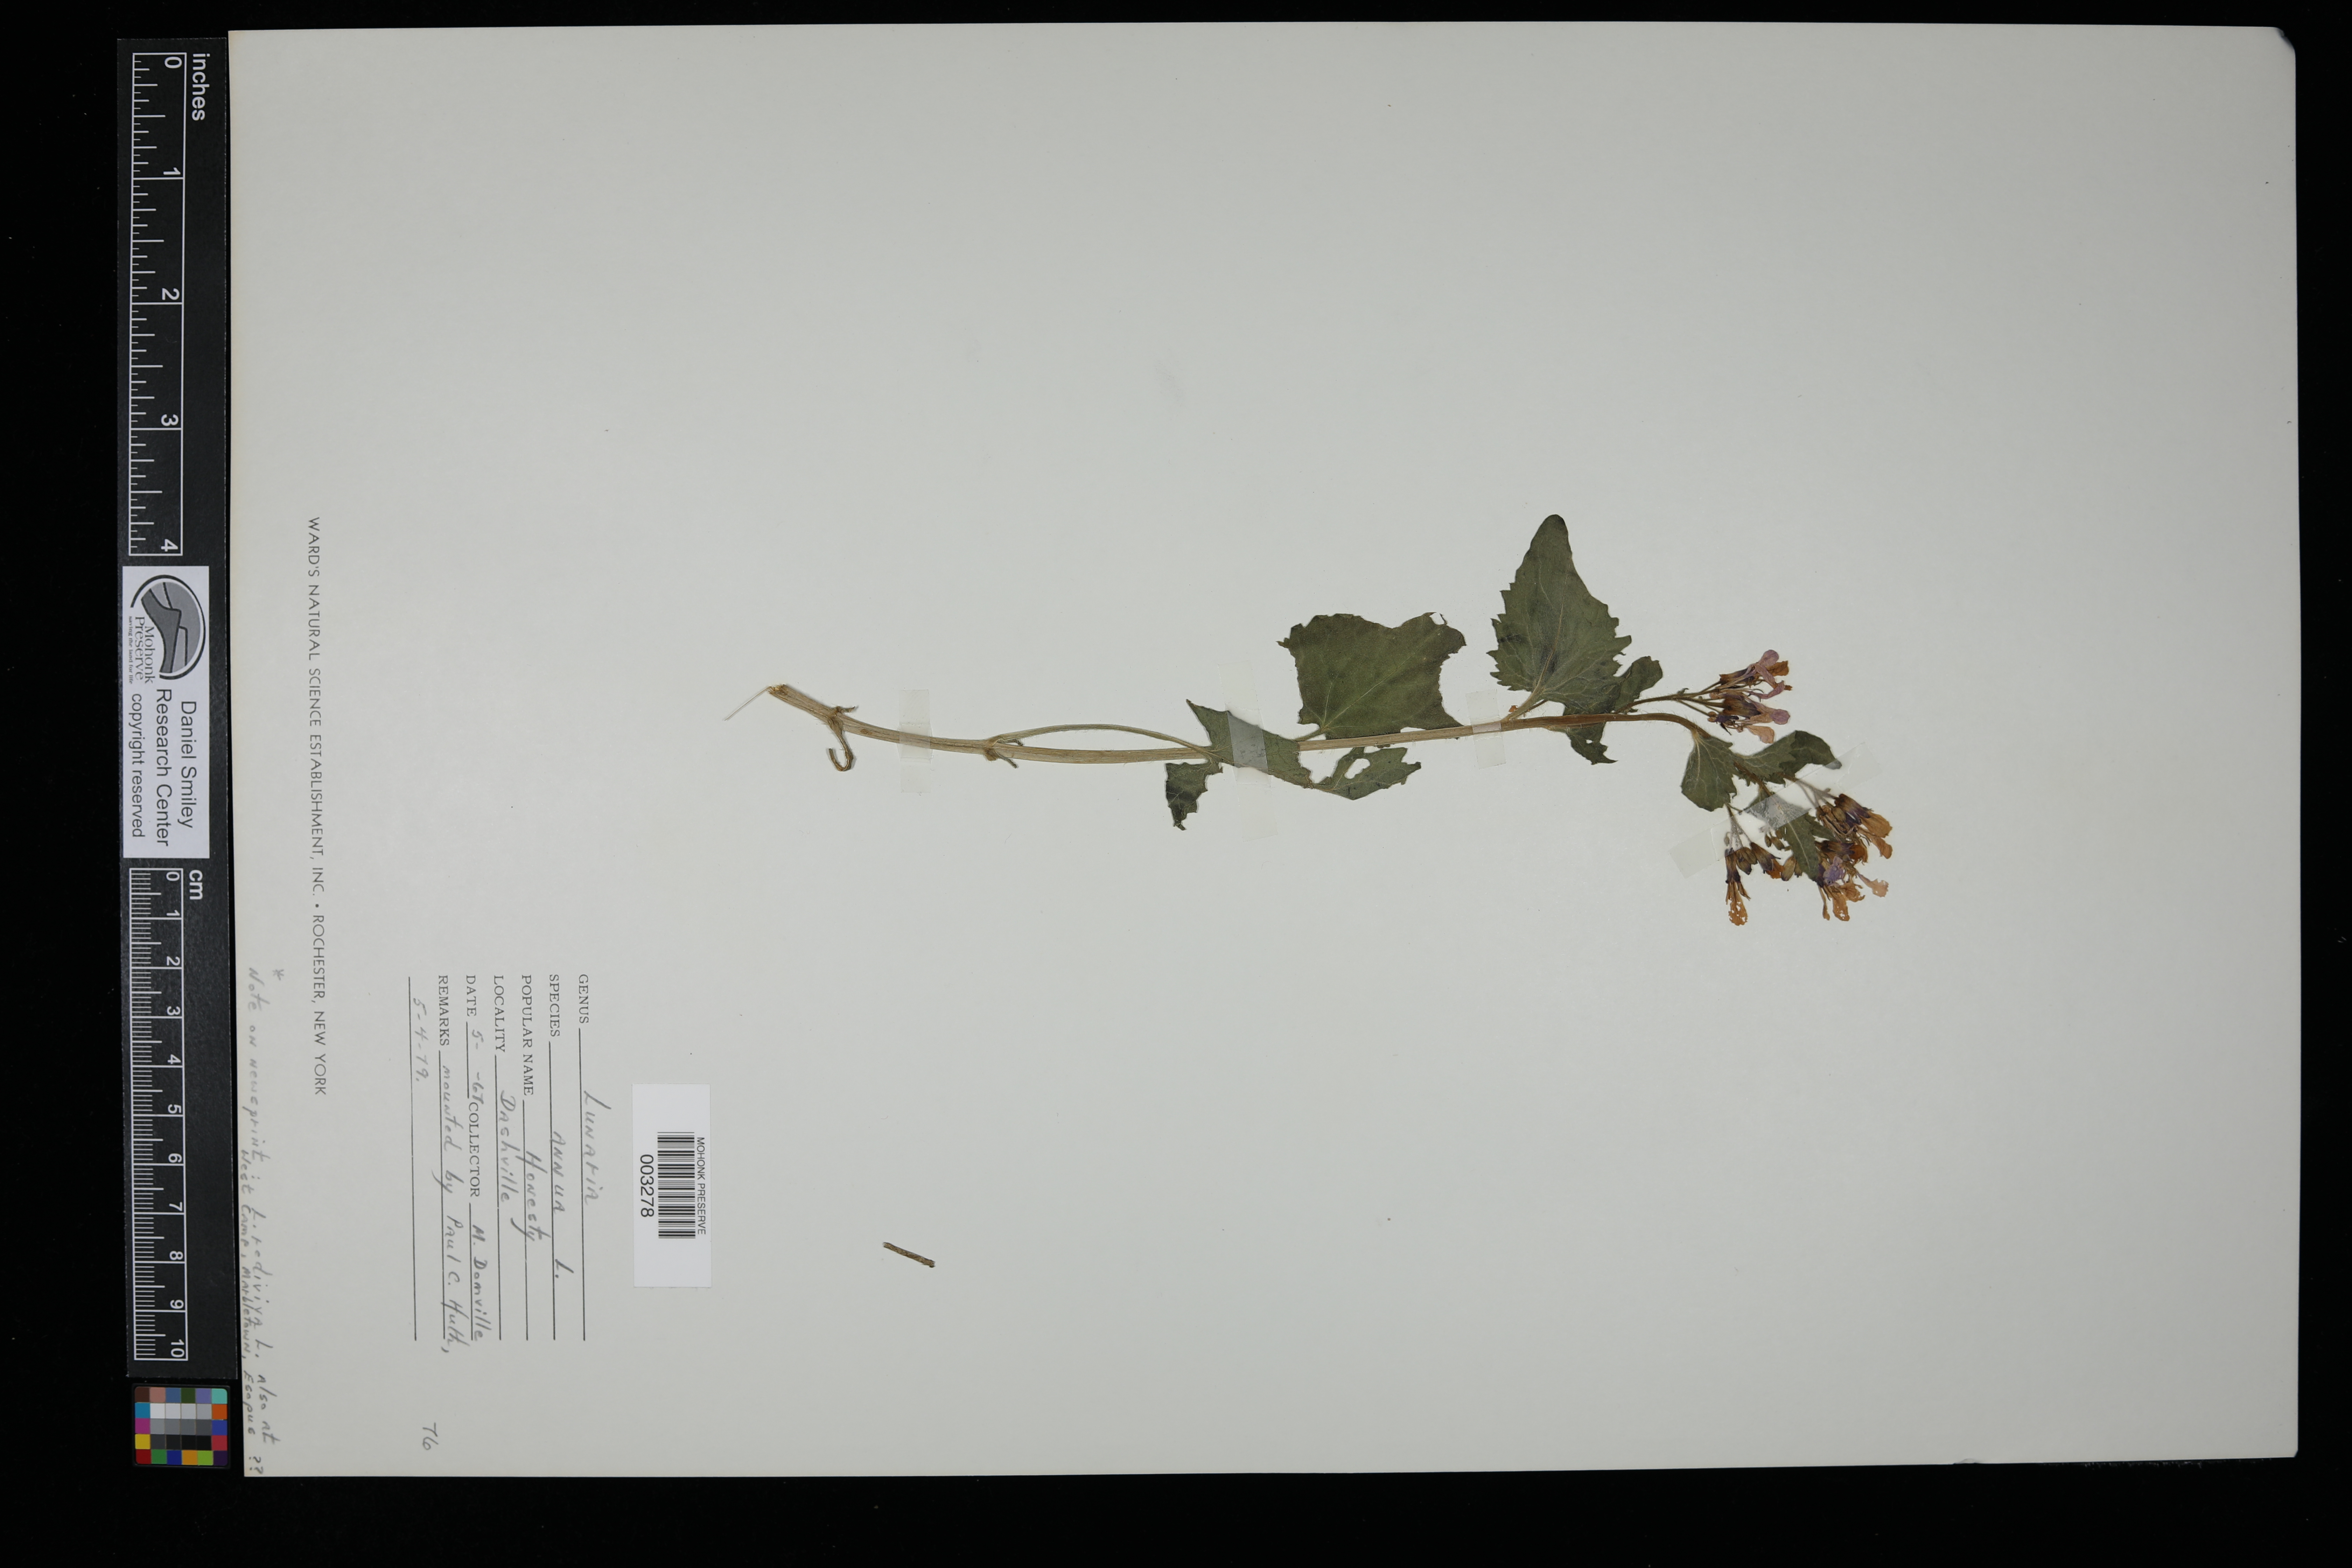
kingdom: Plantae
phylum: Tracheophyta
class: Magnoliopsida
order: Brassicales
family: Brassicaceae
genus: Lunaria
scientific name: Lunaria annua
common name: Honesty
